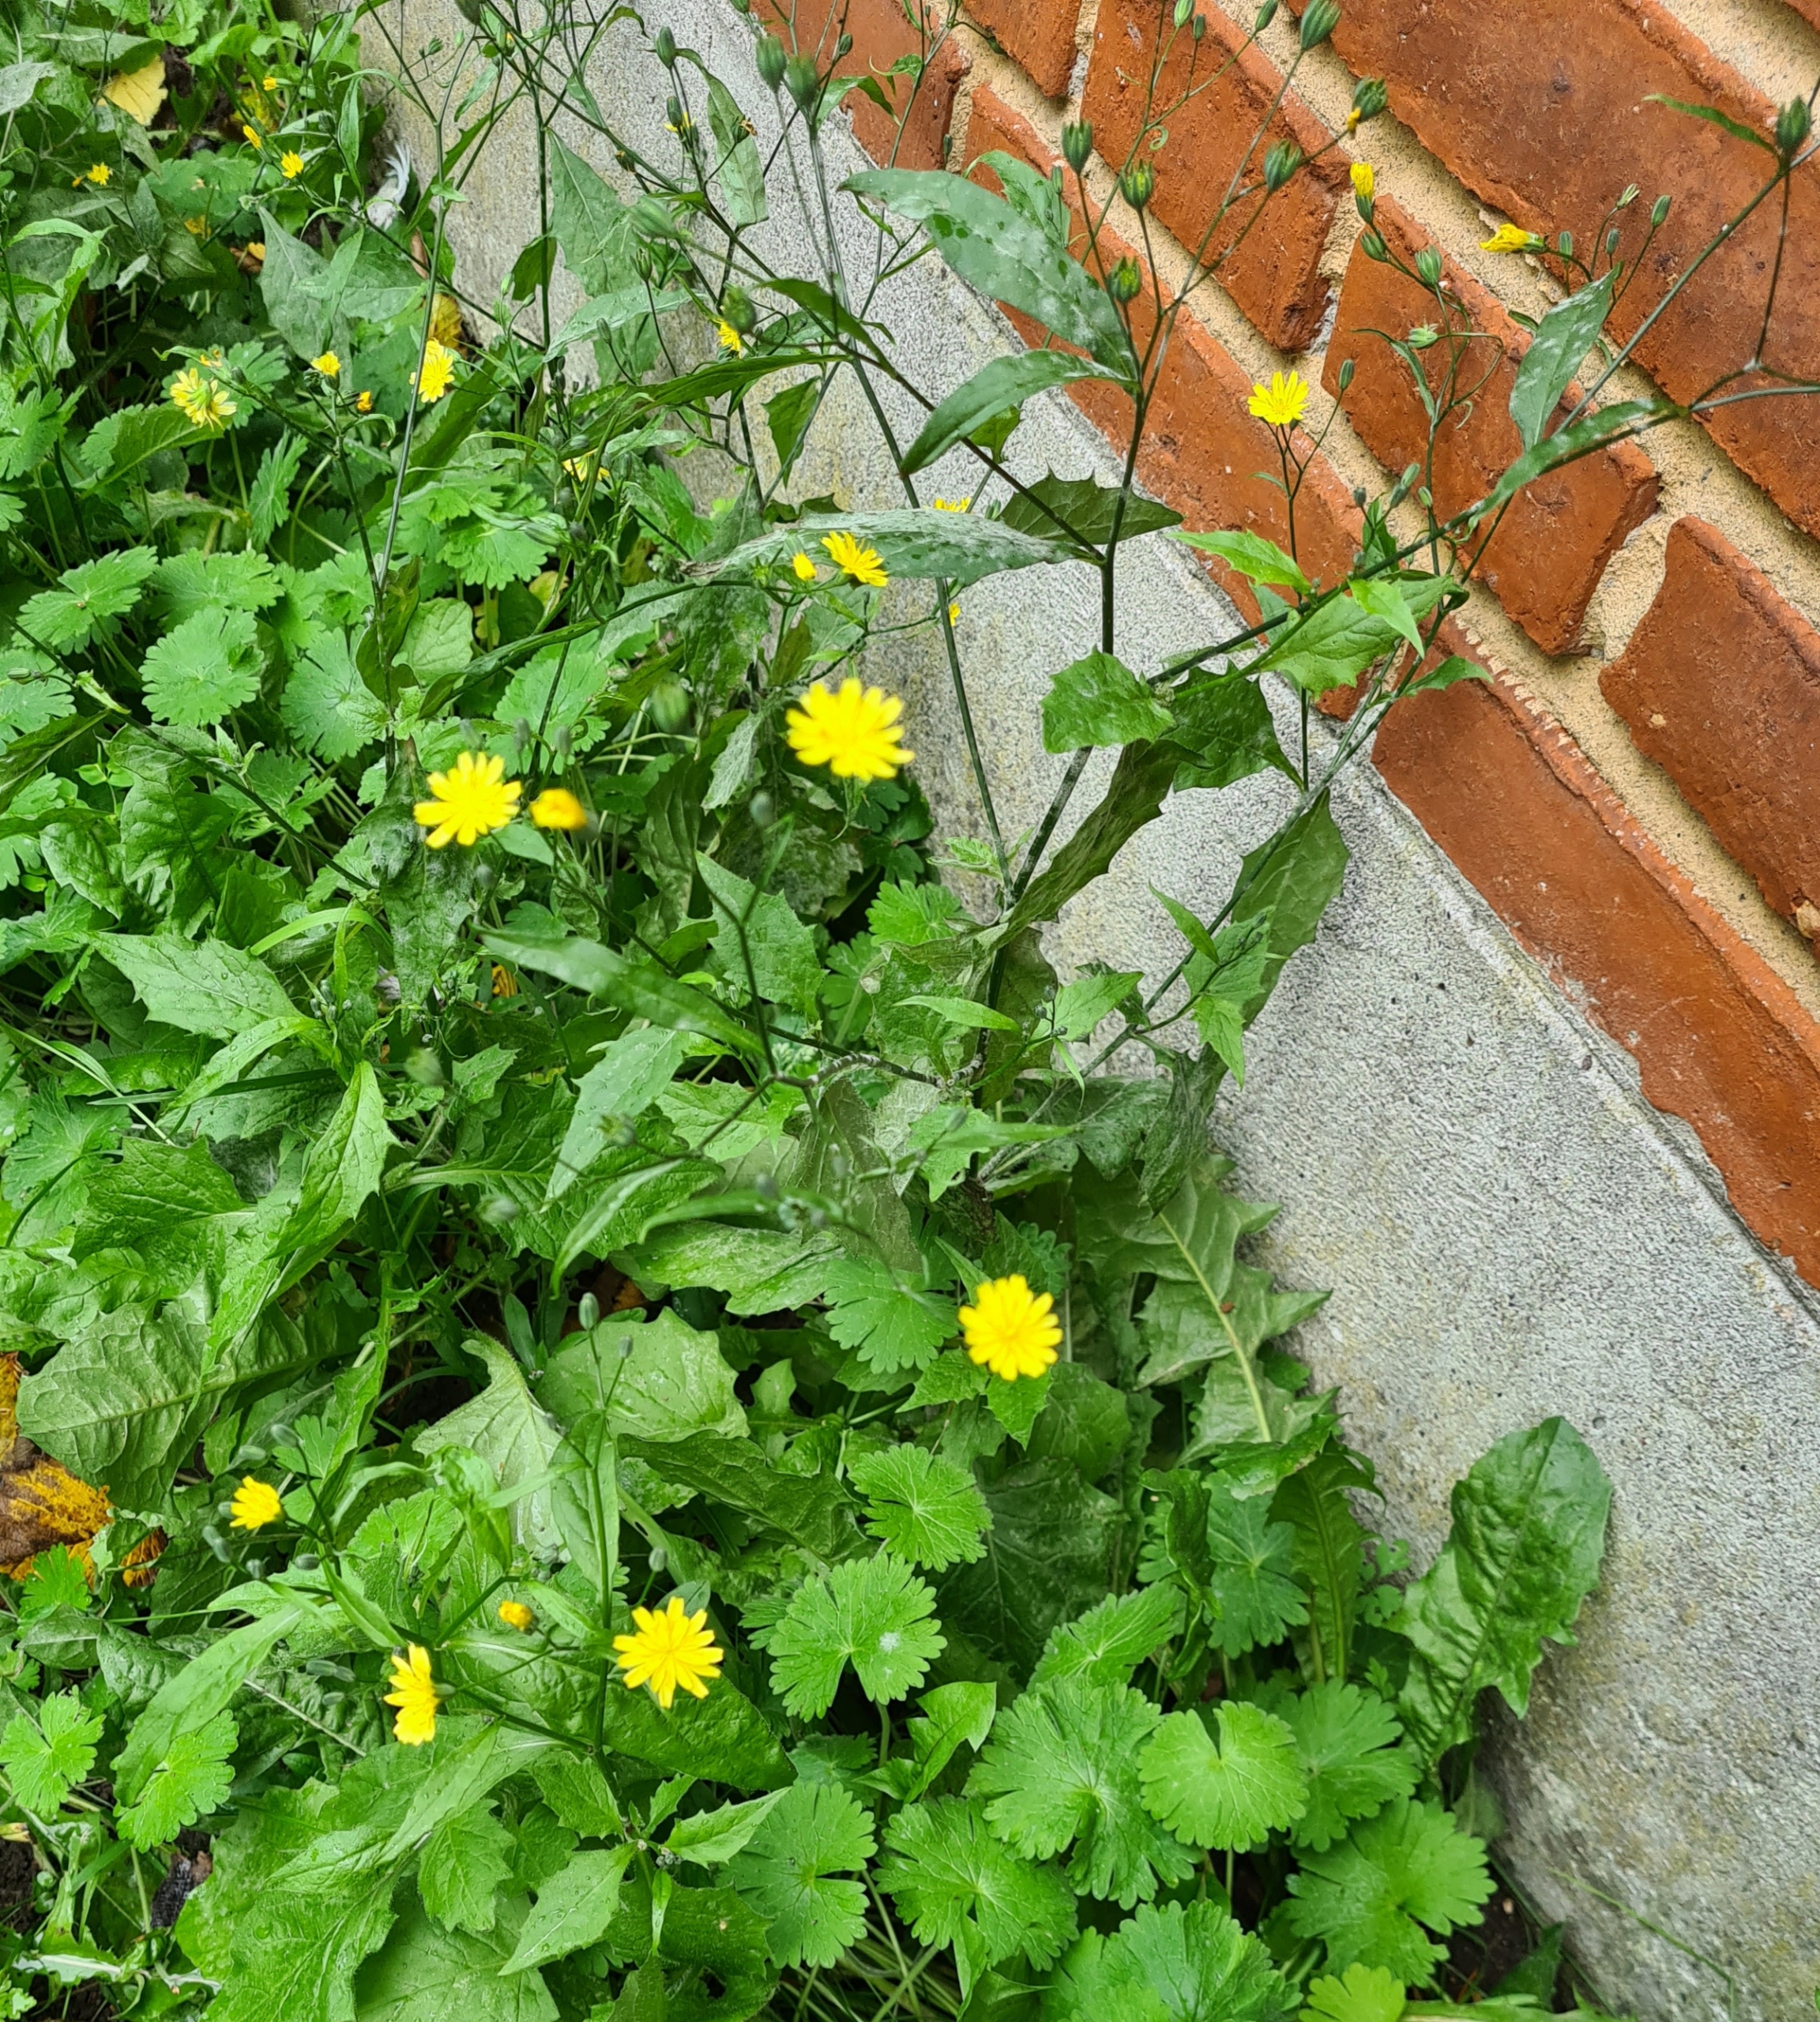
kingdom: Plantae
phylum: Tracheophyta
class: Magnoliopsida
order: Asterales
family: Asteraceae
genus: Lapsana
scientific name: Lapsana communis
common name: Haremad
